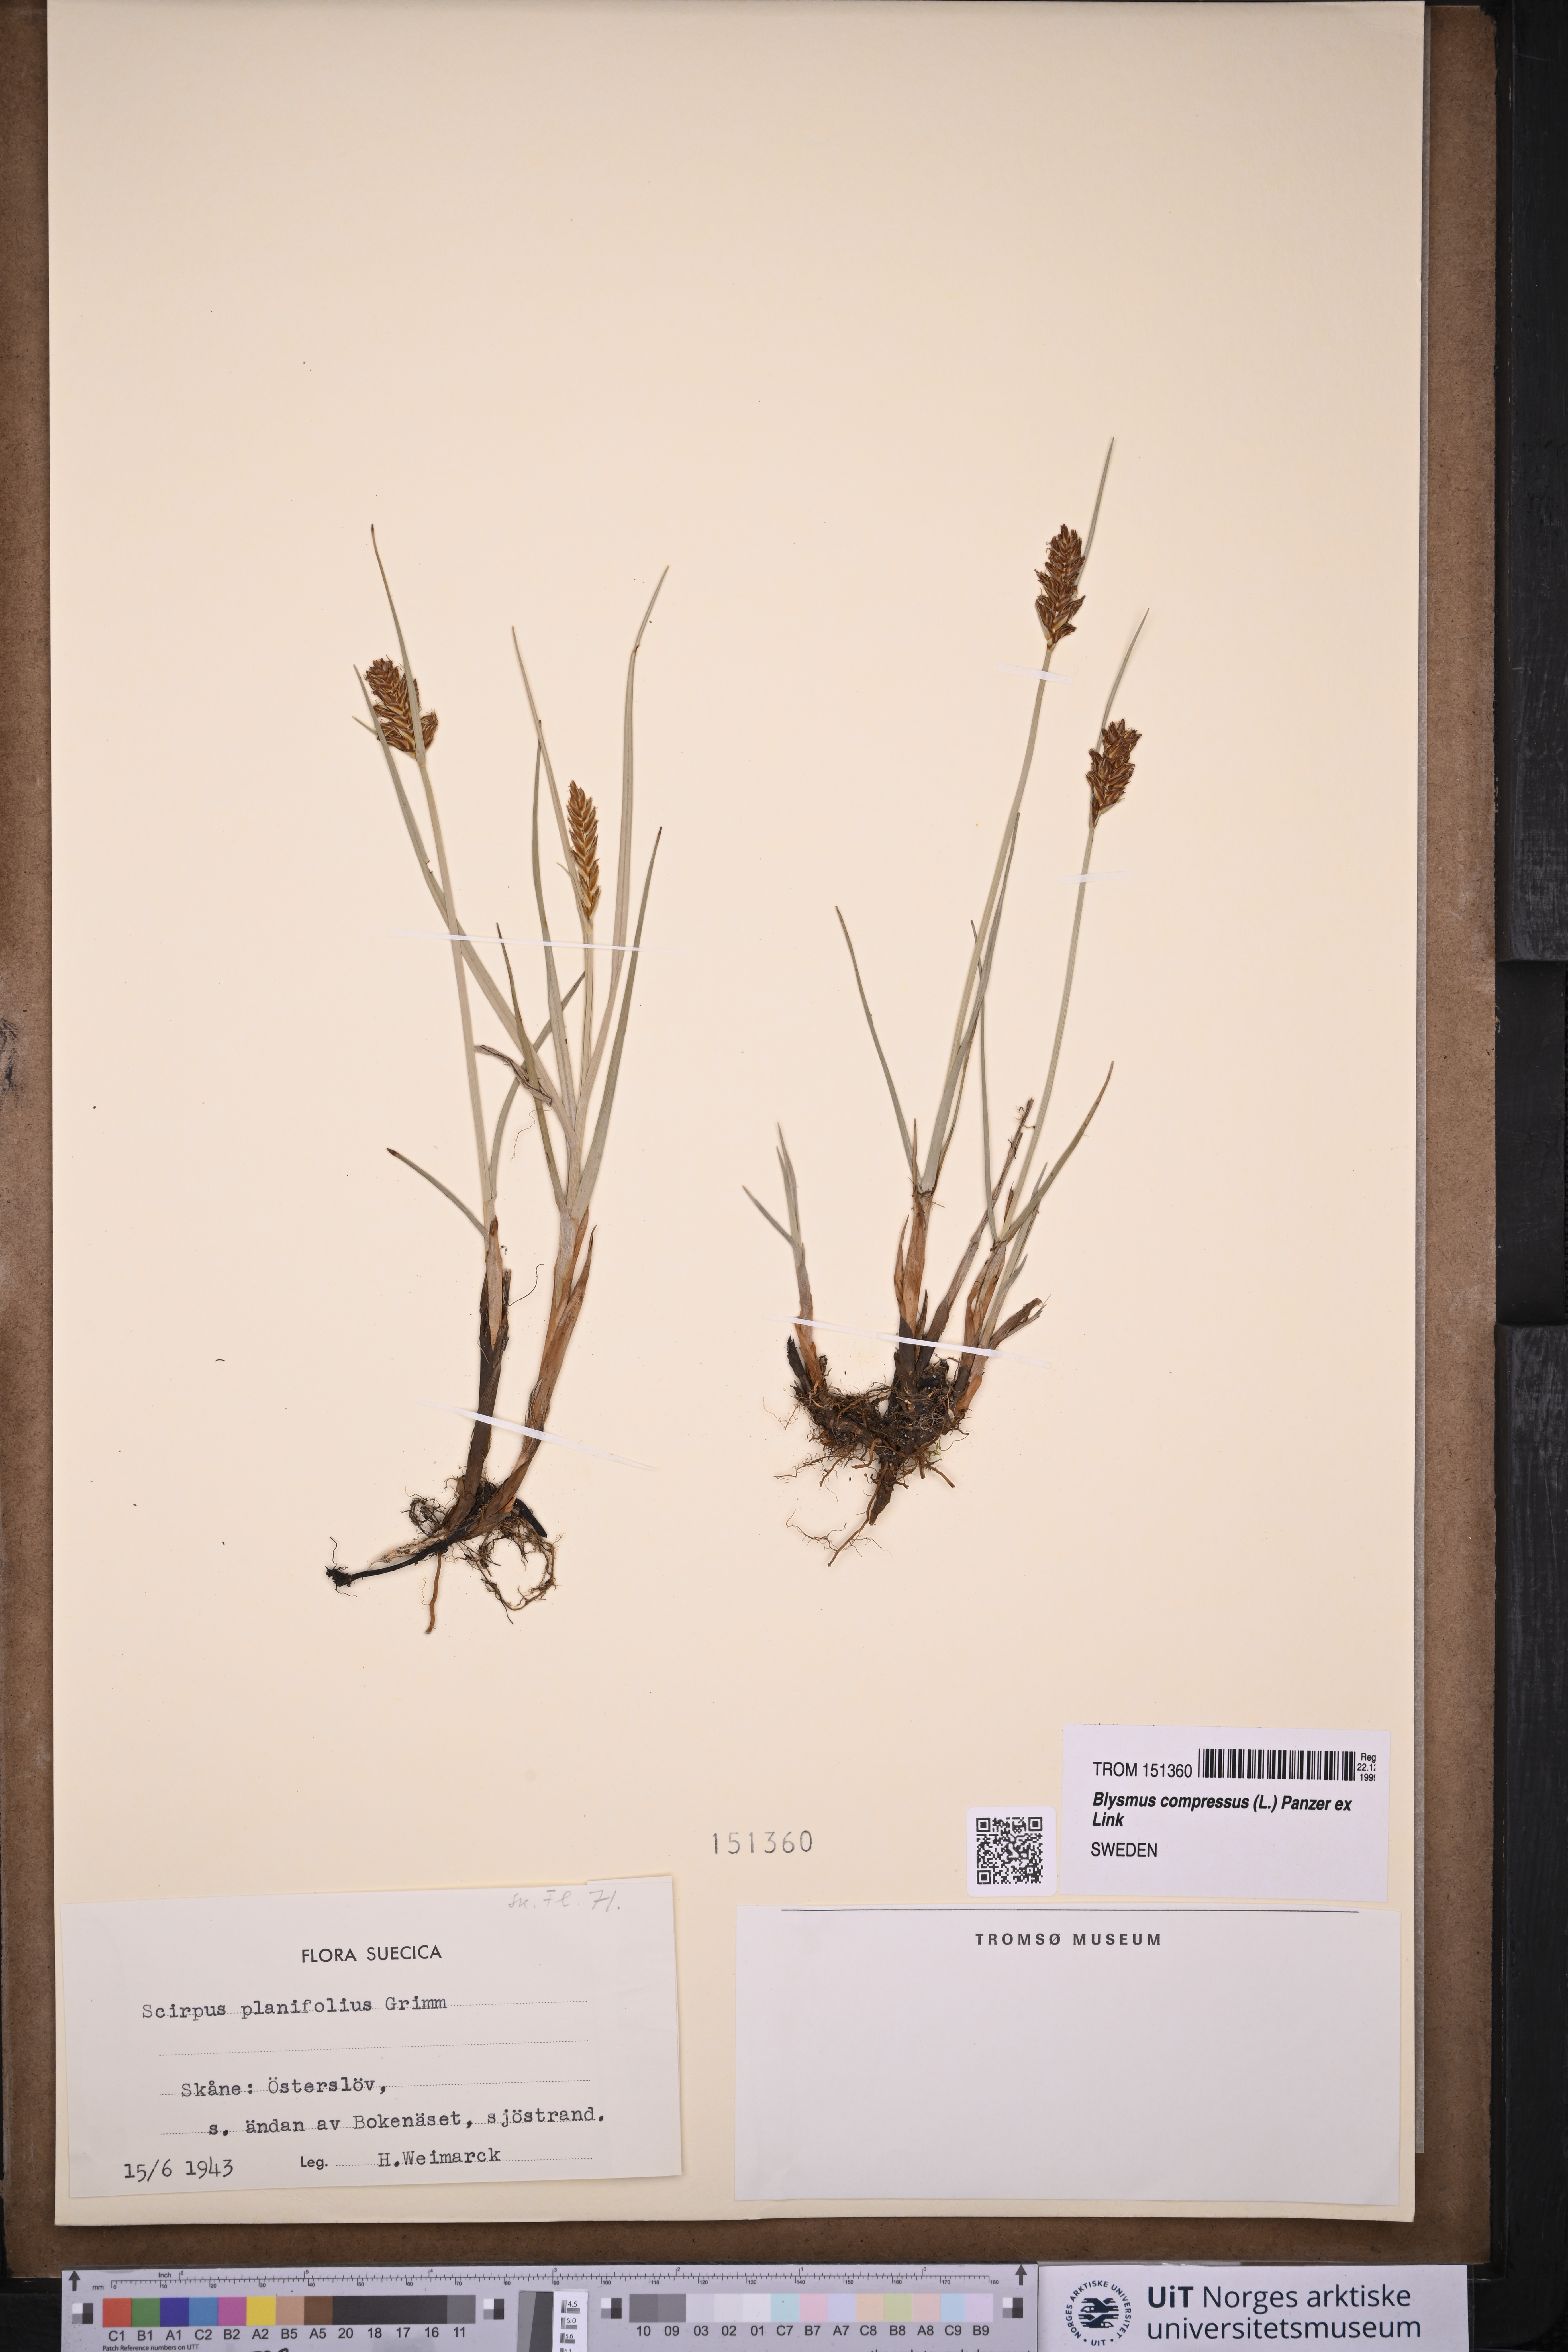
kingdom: Plantae
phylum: Tracheophyta
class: Liliopsida
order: Poales
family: Cyperaceae
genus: Blysmus
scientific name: Blysmus compressus
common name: Flat-sedge
